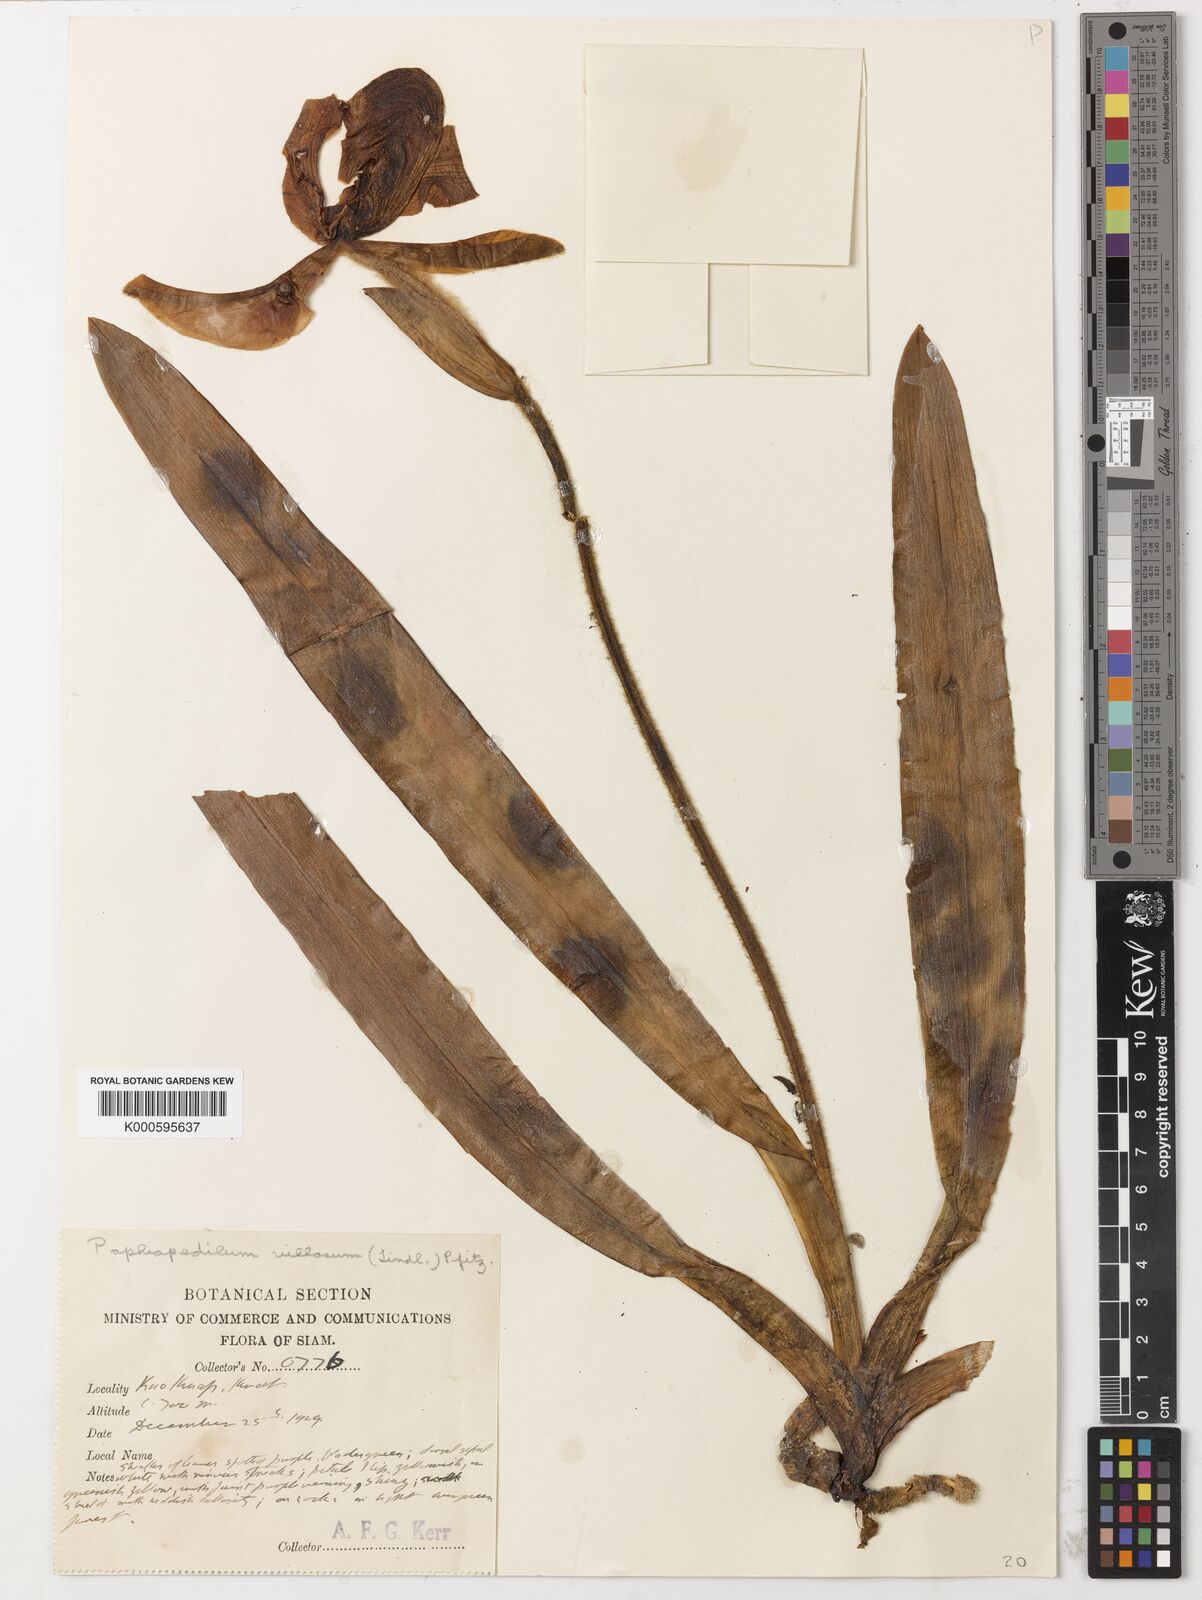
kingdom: Plantae
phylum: Tracheophyta
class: Liliopsida
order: Asparagales
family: Orchidaceae
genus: Paphiopedilum
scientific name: Paphiopedilum villosum
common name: Villose paphiopedilum
